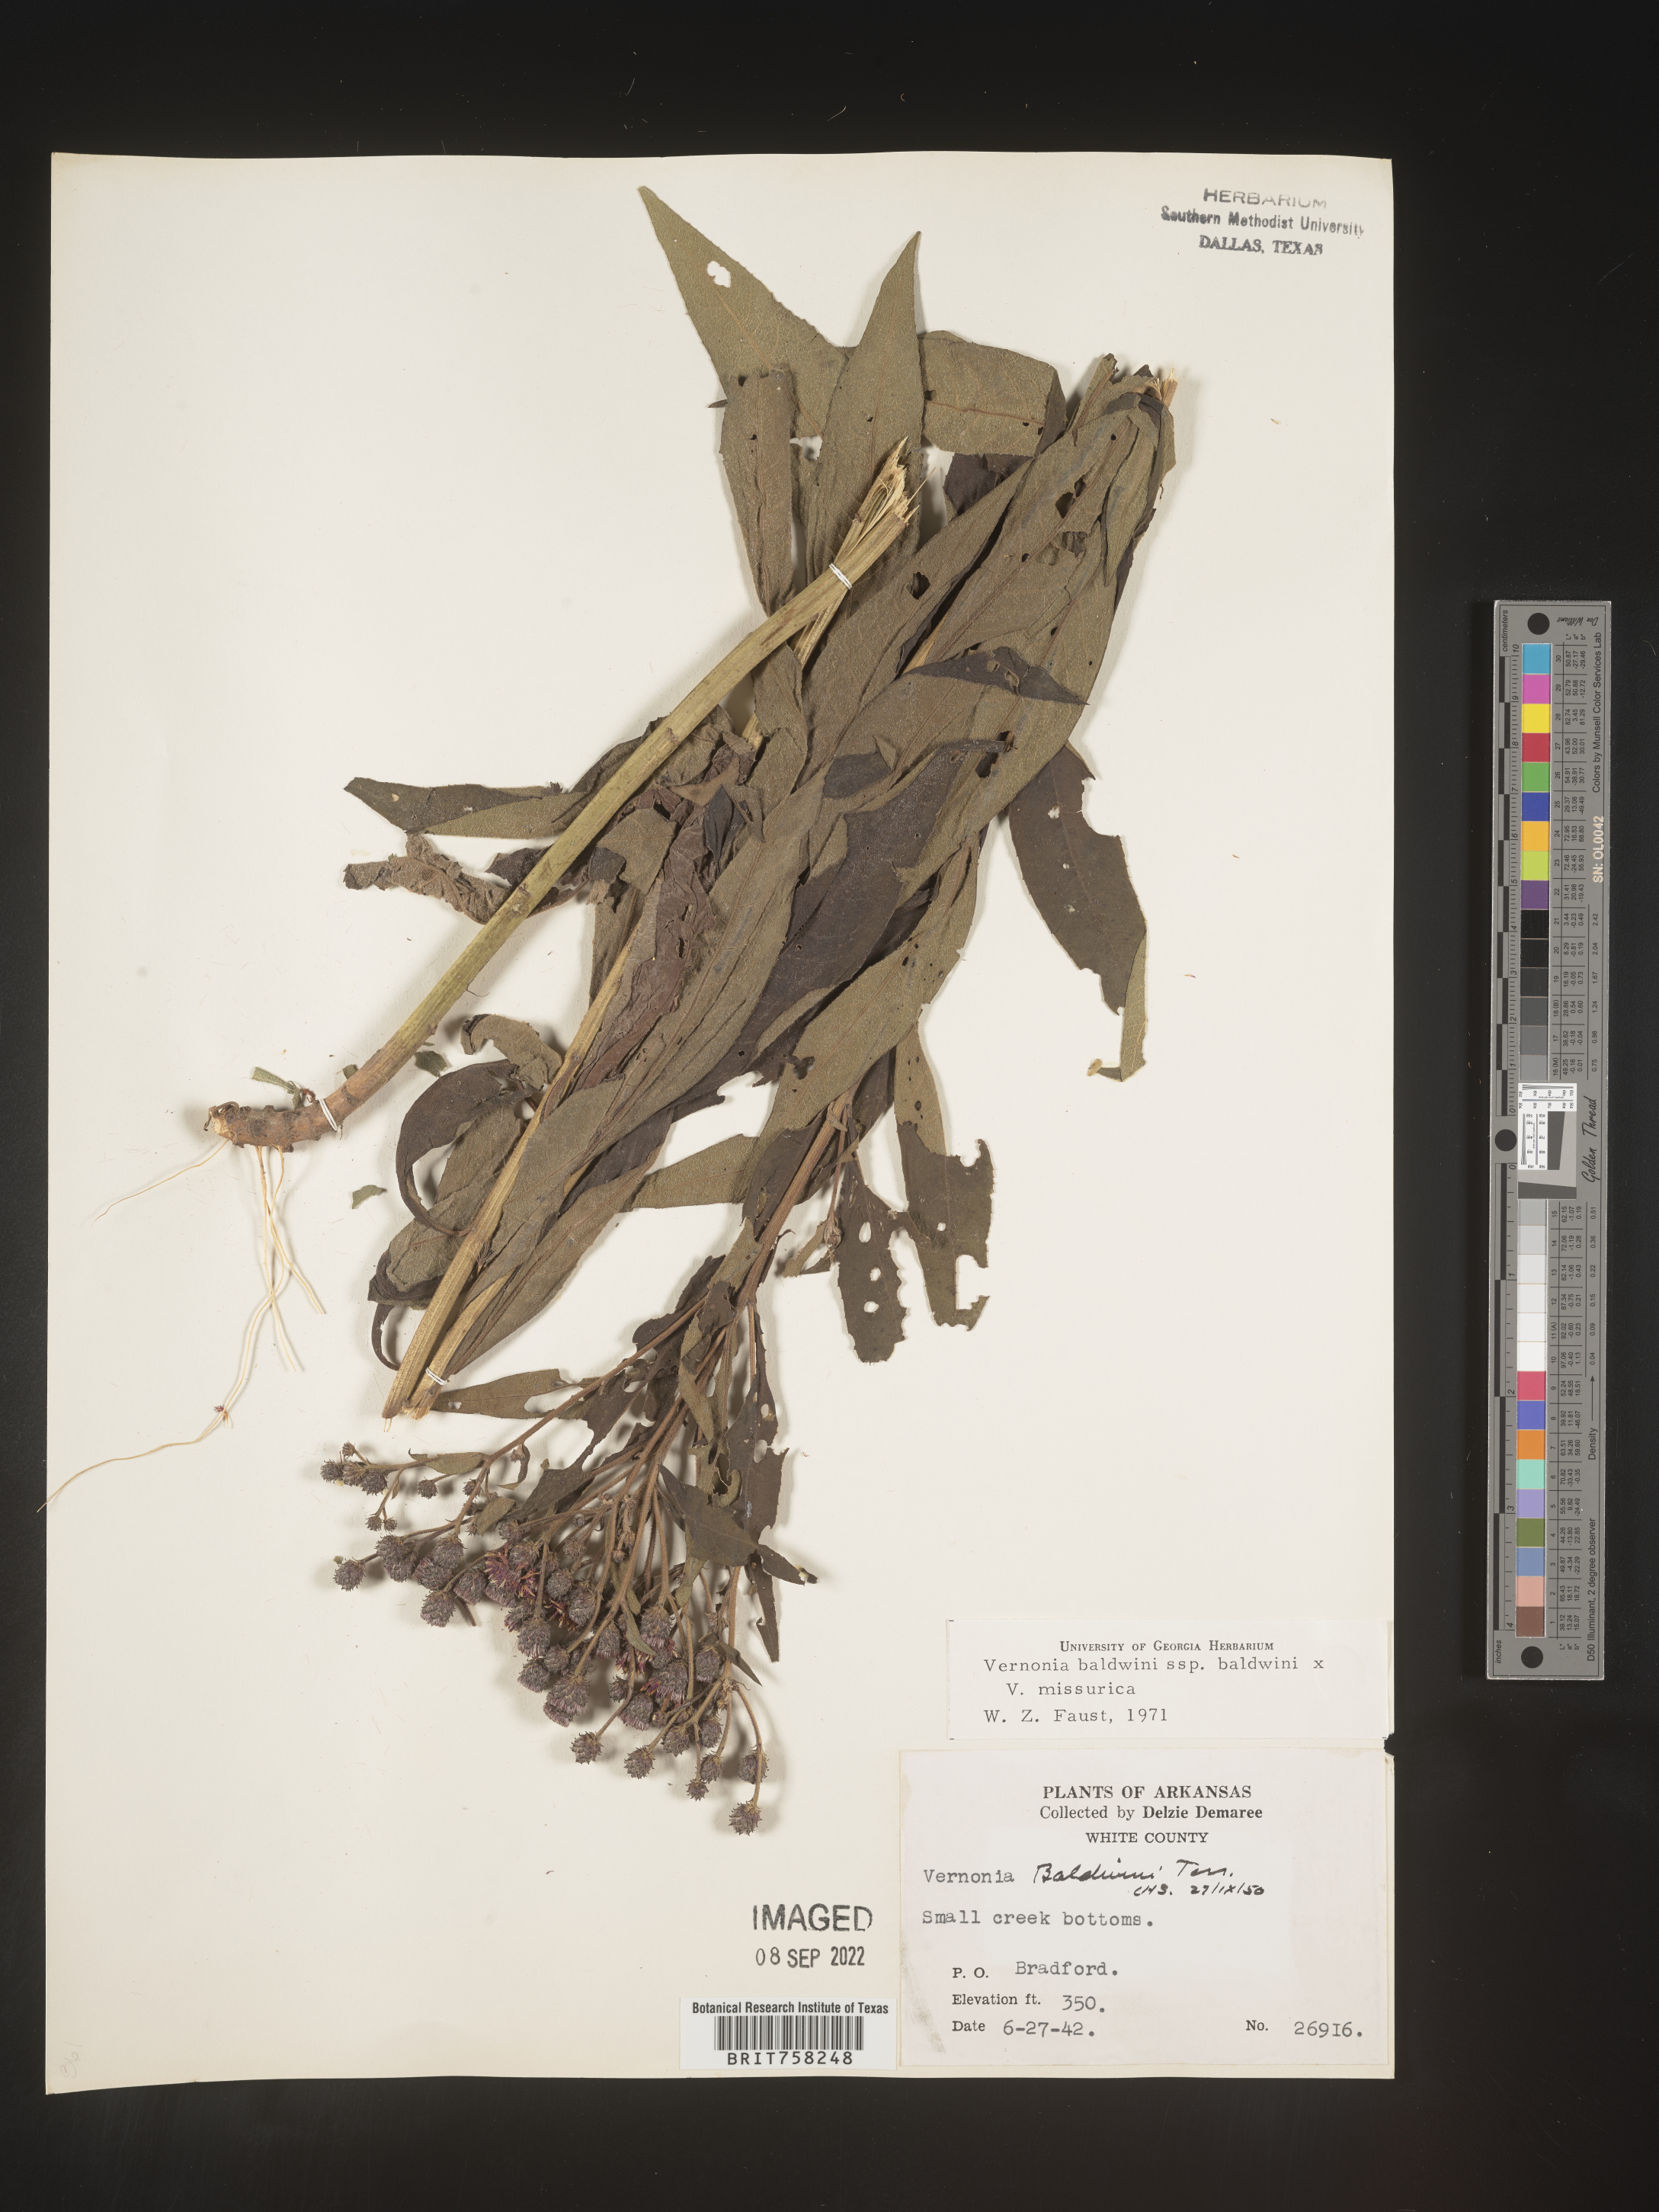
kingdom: Plantae
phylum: Tracheophyta
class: Magnoliopsida
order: Asterales
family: Asteraceae
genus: Vernonia
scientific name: Vernonia baldwinii
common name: Western ironweed
